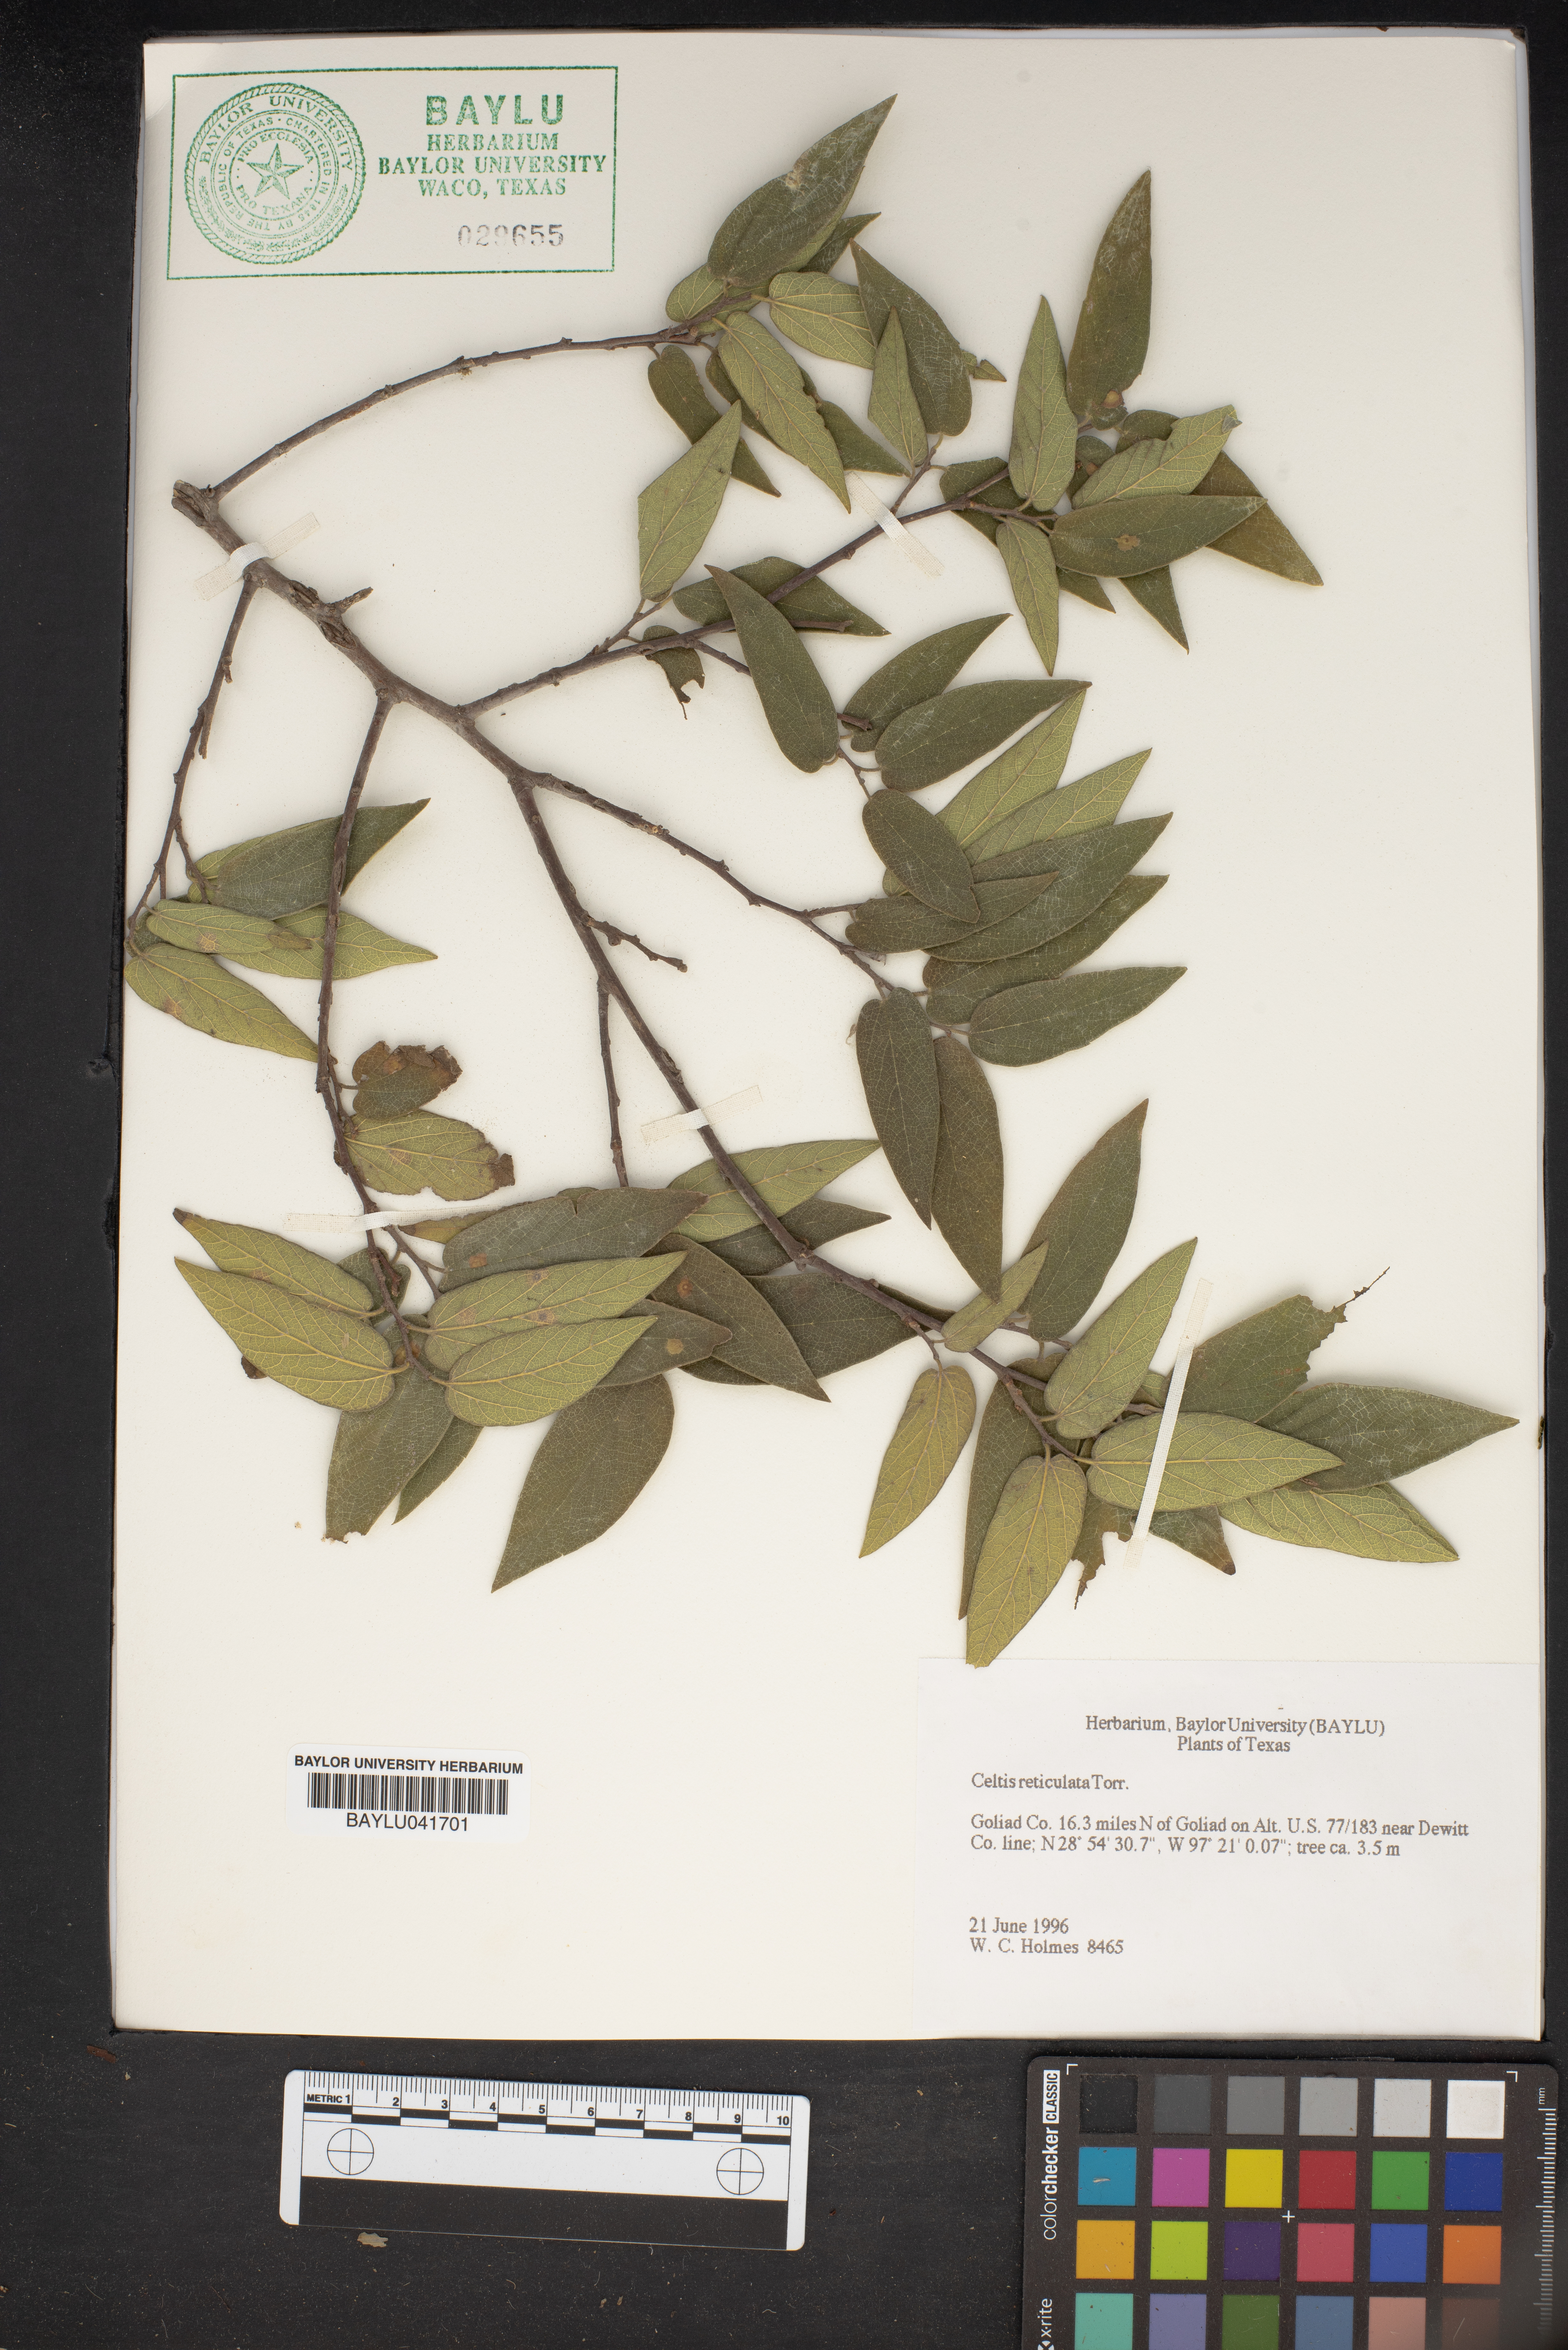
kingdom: Plantae
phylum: Tracheophyta
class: Magnoliopsida
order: Rosales
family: Cannabaceae
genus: Celtis
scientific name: Celtis reticulata
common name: Netleaf hackberry
